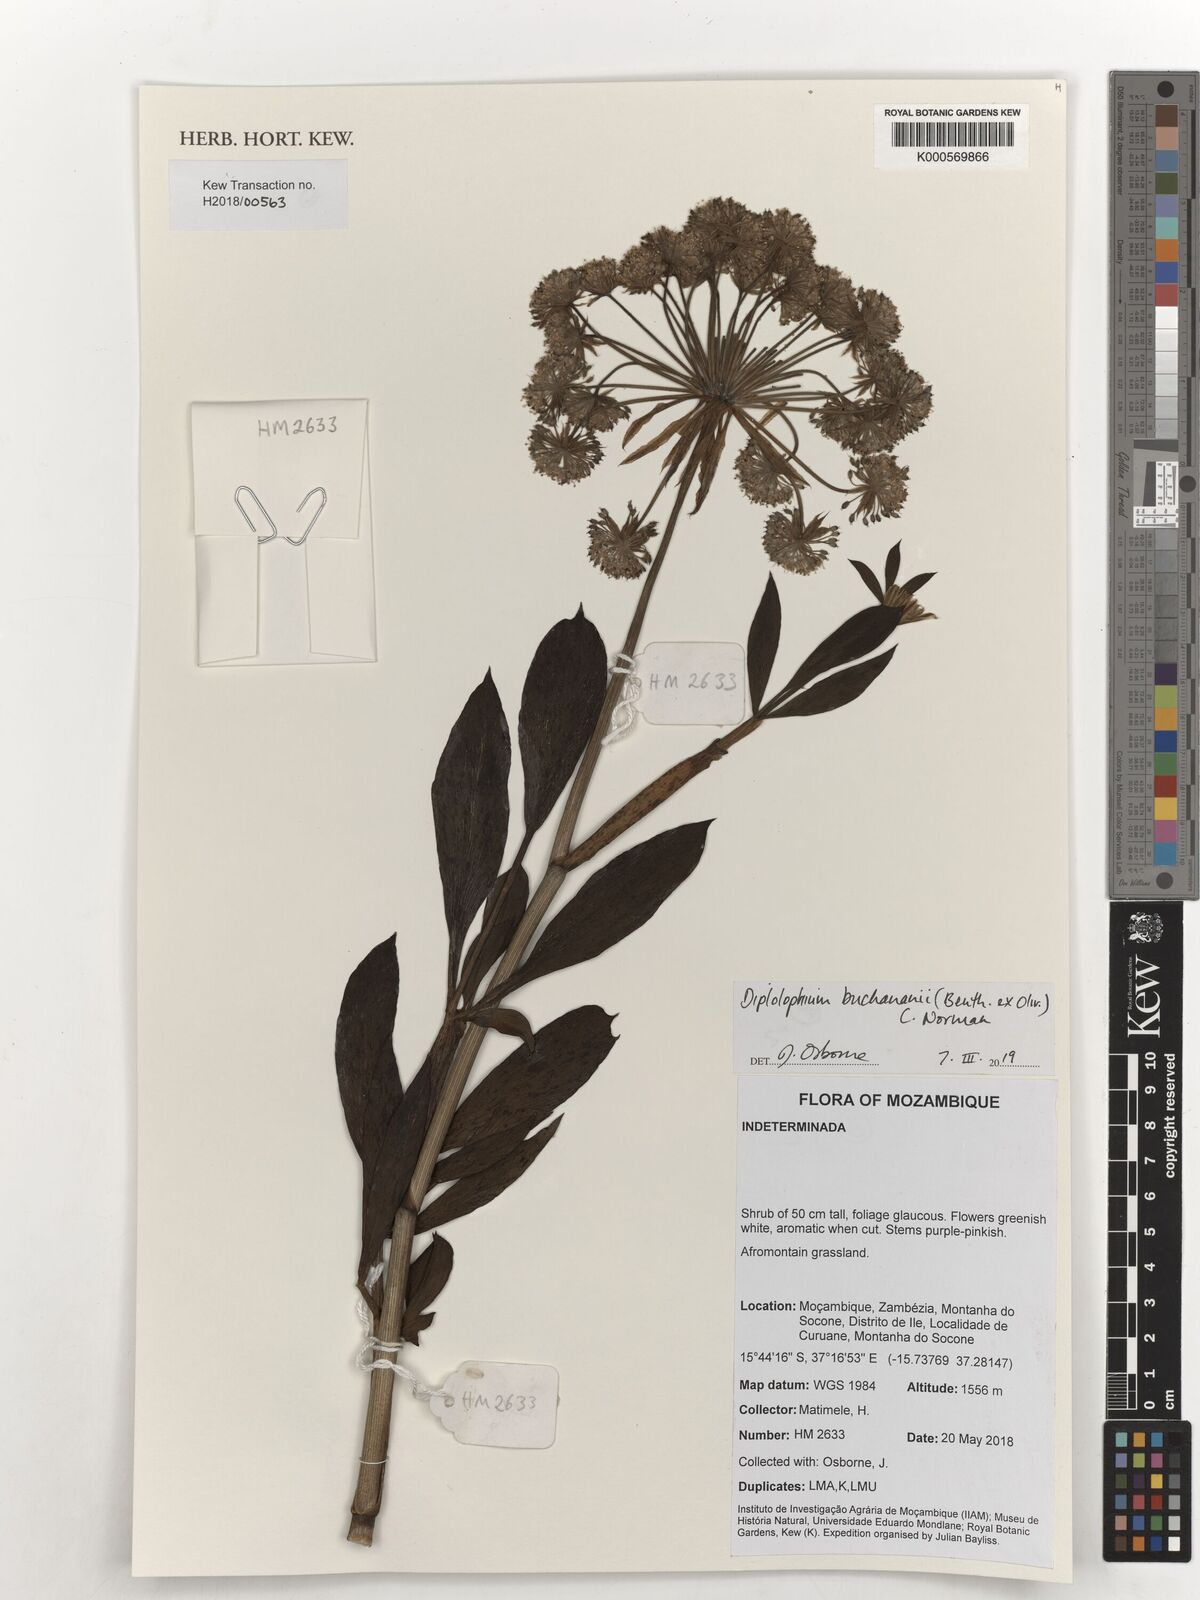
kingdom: Plantae
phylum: Tracheophyta
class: Magnoliopsida
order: Apiales
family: Apiaceae
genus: Diplolophium
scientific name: Diplolophium buchananii
